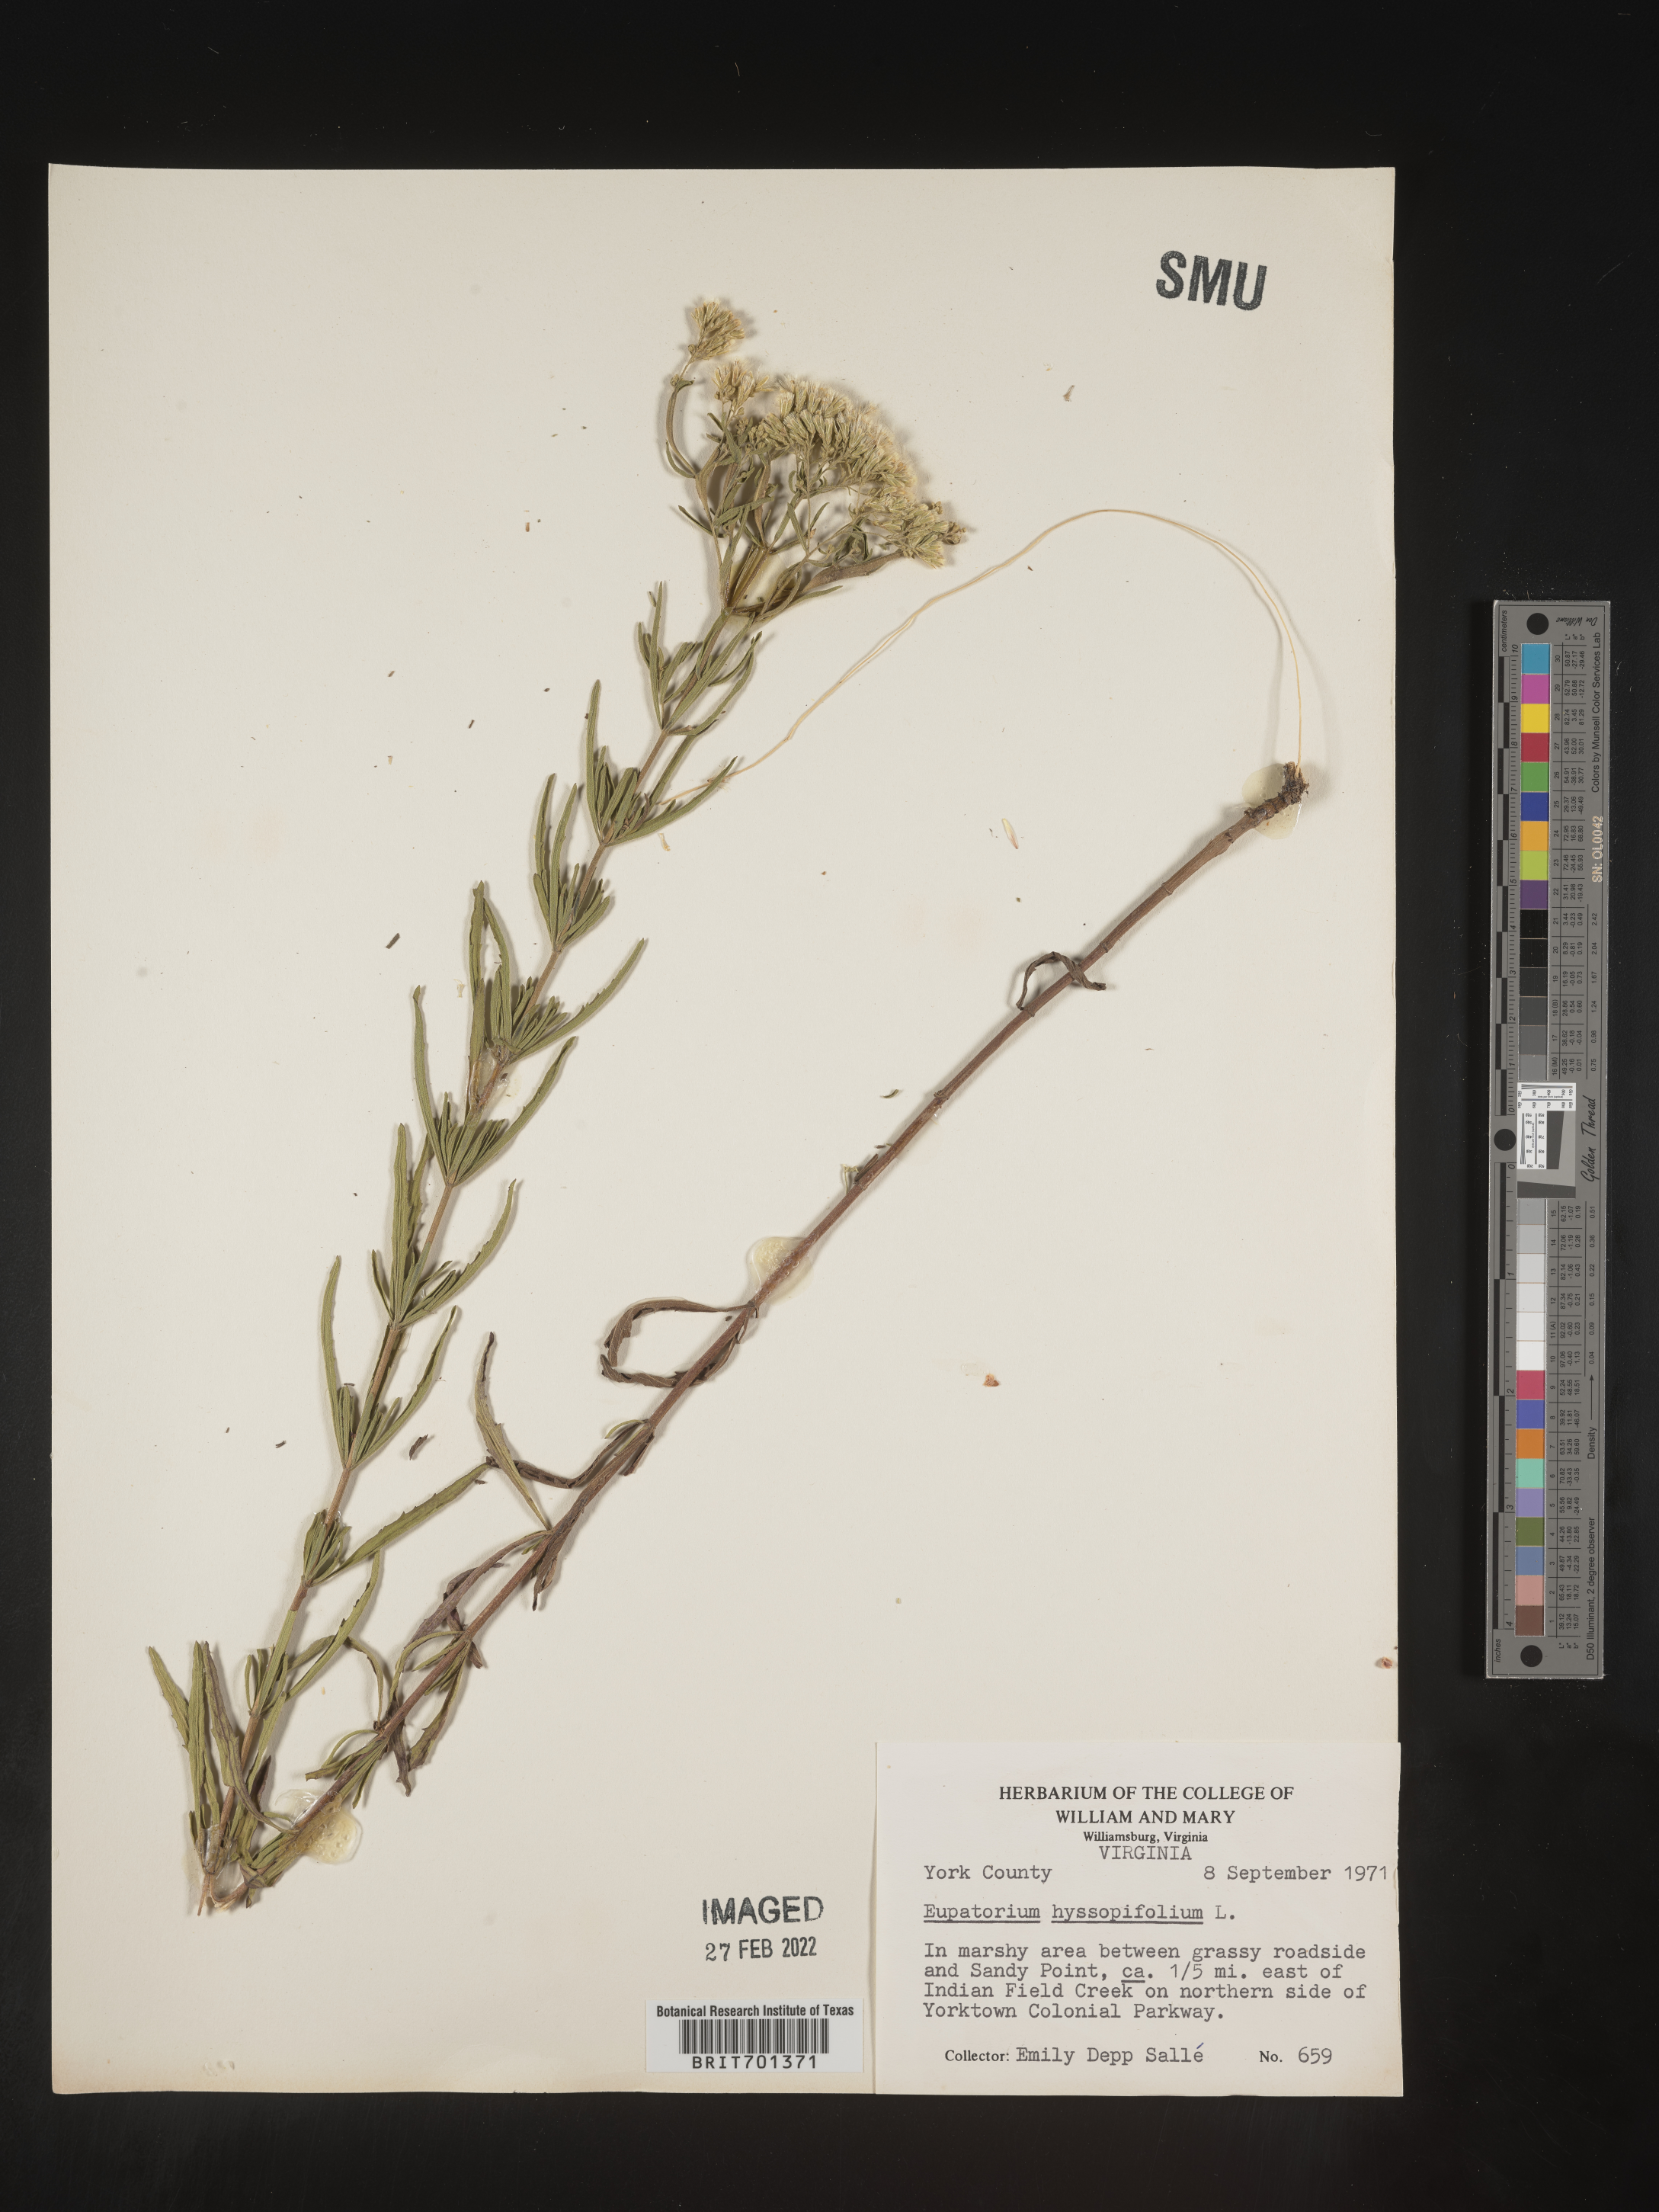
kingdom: Plantae
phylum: Tracheophyta
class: Magnoliopsida
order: Asterales
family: Asteraceae
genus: Eupatorium
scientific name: Eupatorium hyssopifolium
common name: Hyssop-leaf thoroughwort
